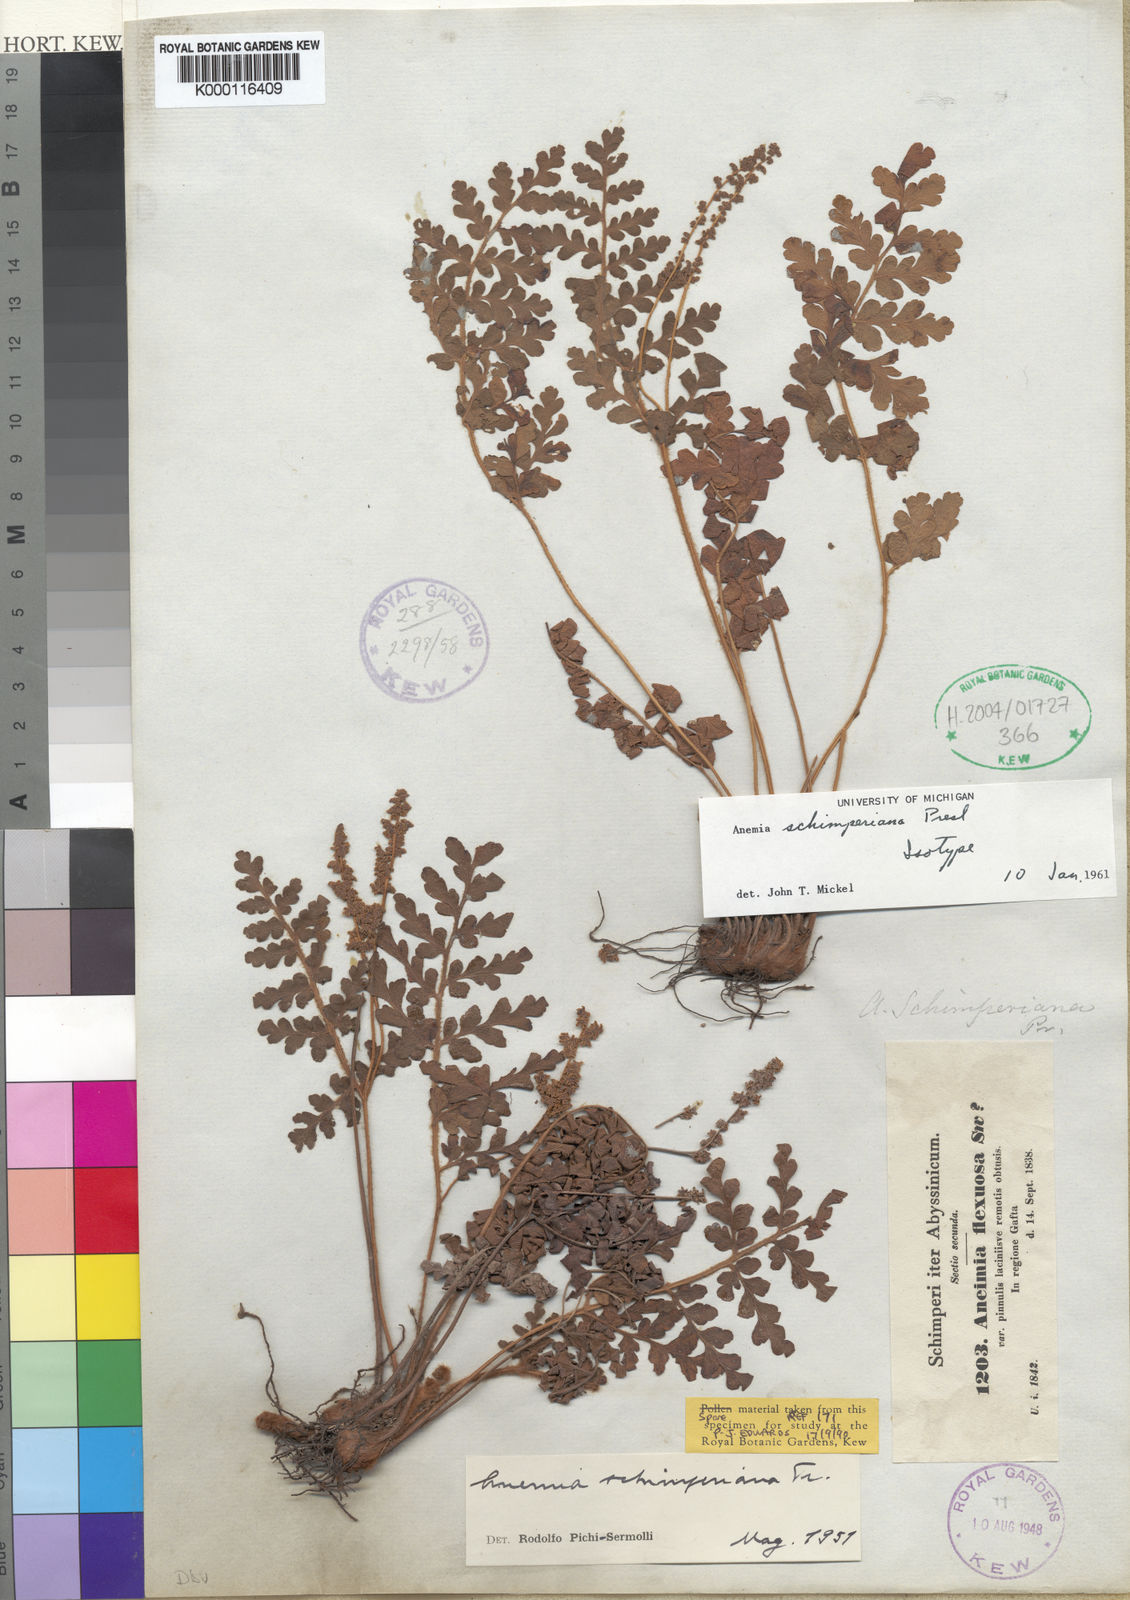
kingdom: Plantae
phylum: Tracheophyta
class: Polypodiopsida
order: Schizaeales
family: Anemiaceae
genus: Anemia
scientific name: Anemia schimperiana
